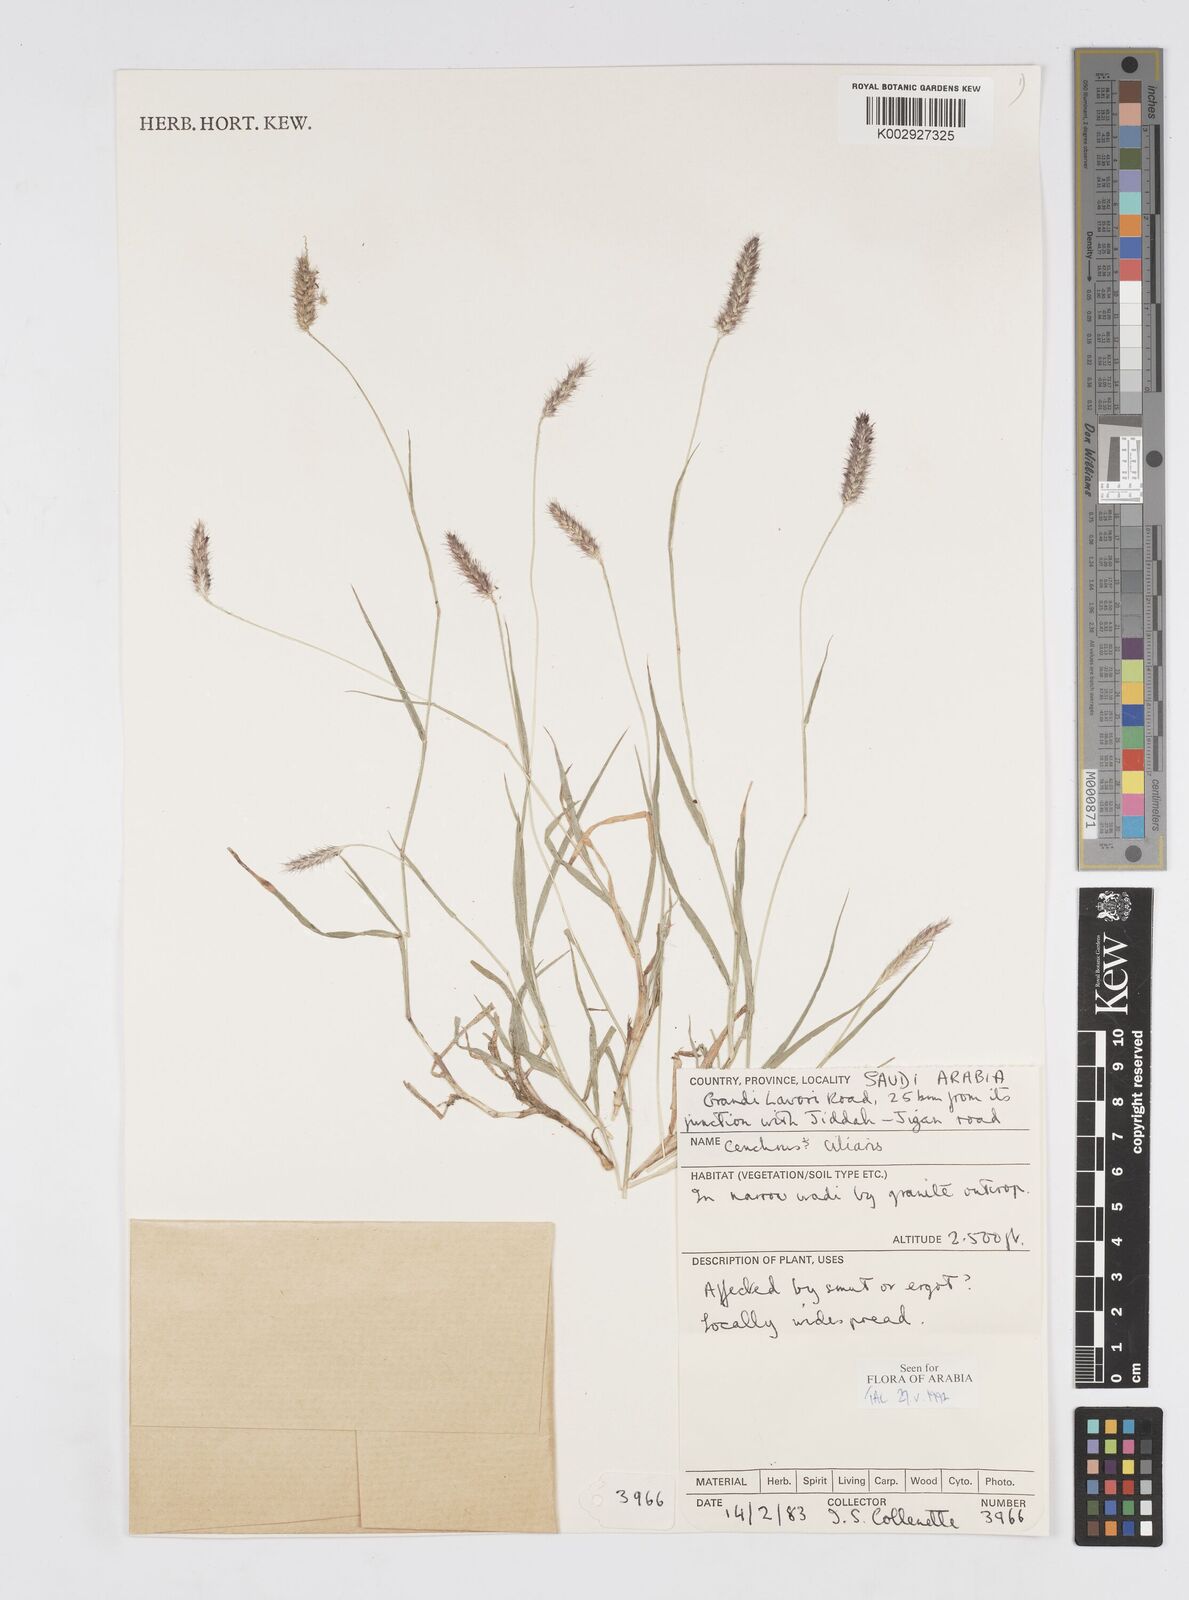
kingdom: Plantae
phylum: Tracheophyta
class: Liliopsida
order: Poales
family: Poaceae
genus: Cenchrus
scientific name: Cenchrus ciliaris
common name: Buffelgrass
